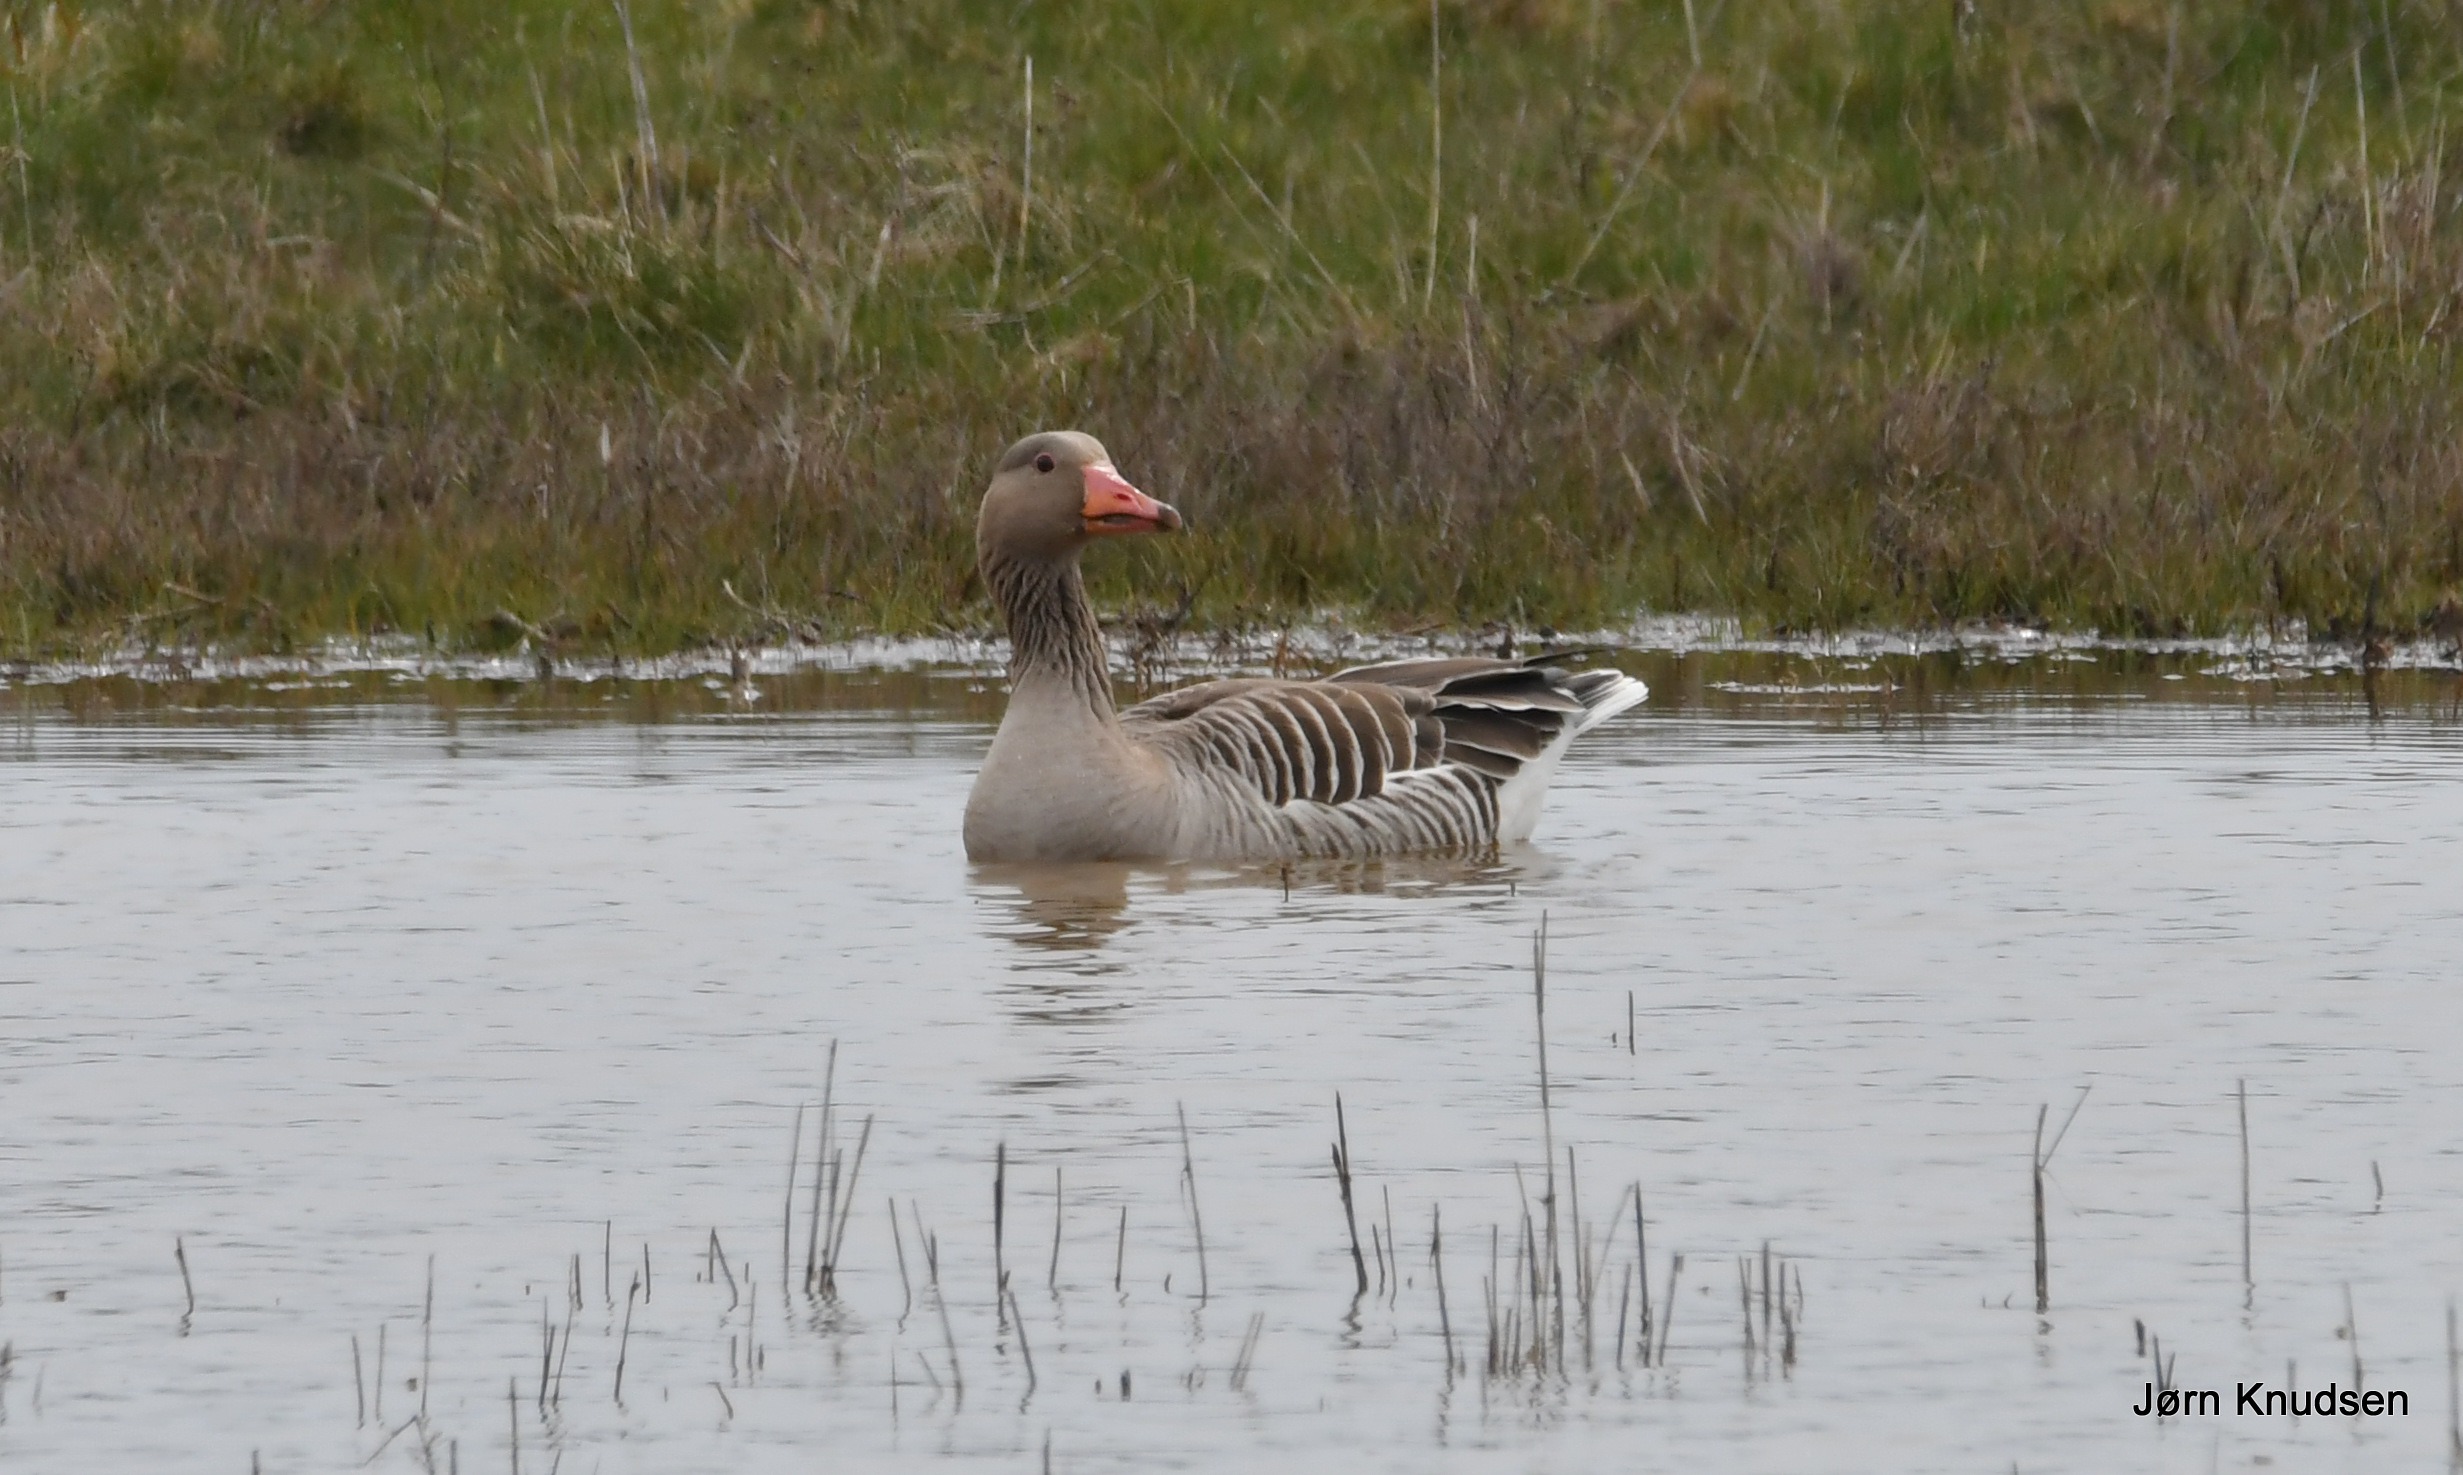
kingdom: Animalia
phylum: Chordata
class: Aves
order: Anseriformes
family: Anatidae
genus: Anser
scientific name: Anser anser
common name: Grågås
